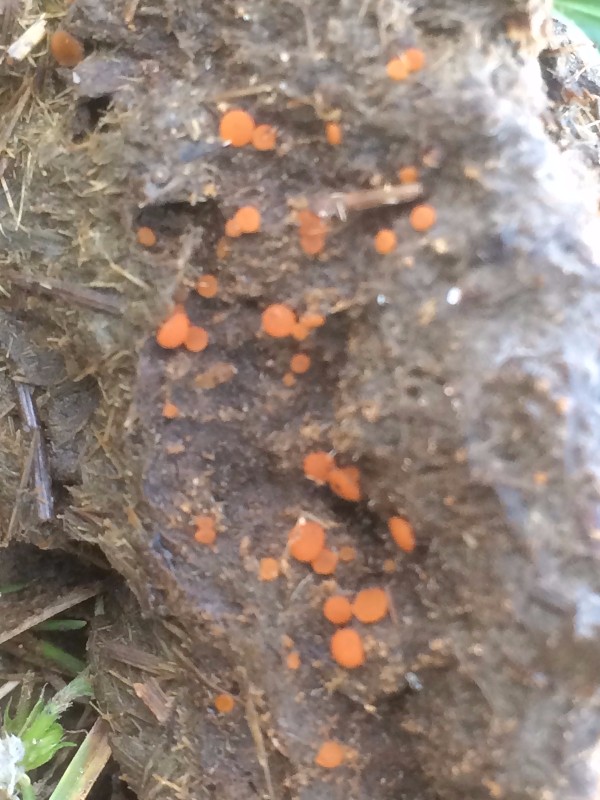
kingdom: Fungi
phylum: Ascomycota
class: Pezizomycetes
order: Pezizales
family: Pyronemataceae
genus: Cheilymenia
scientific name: Cheilymenia granulata
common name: møgbæger
